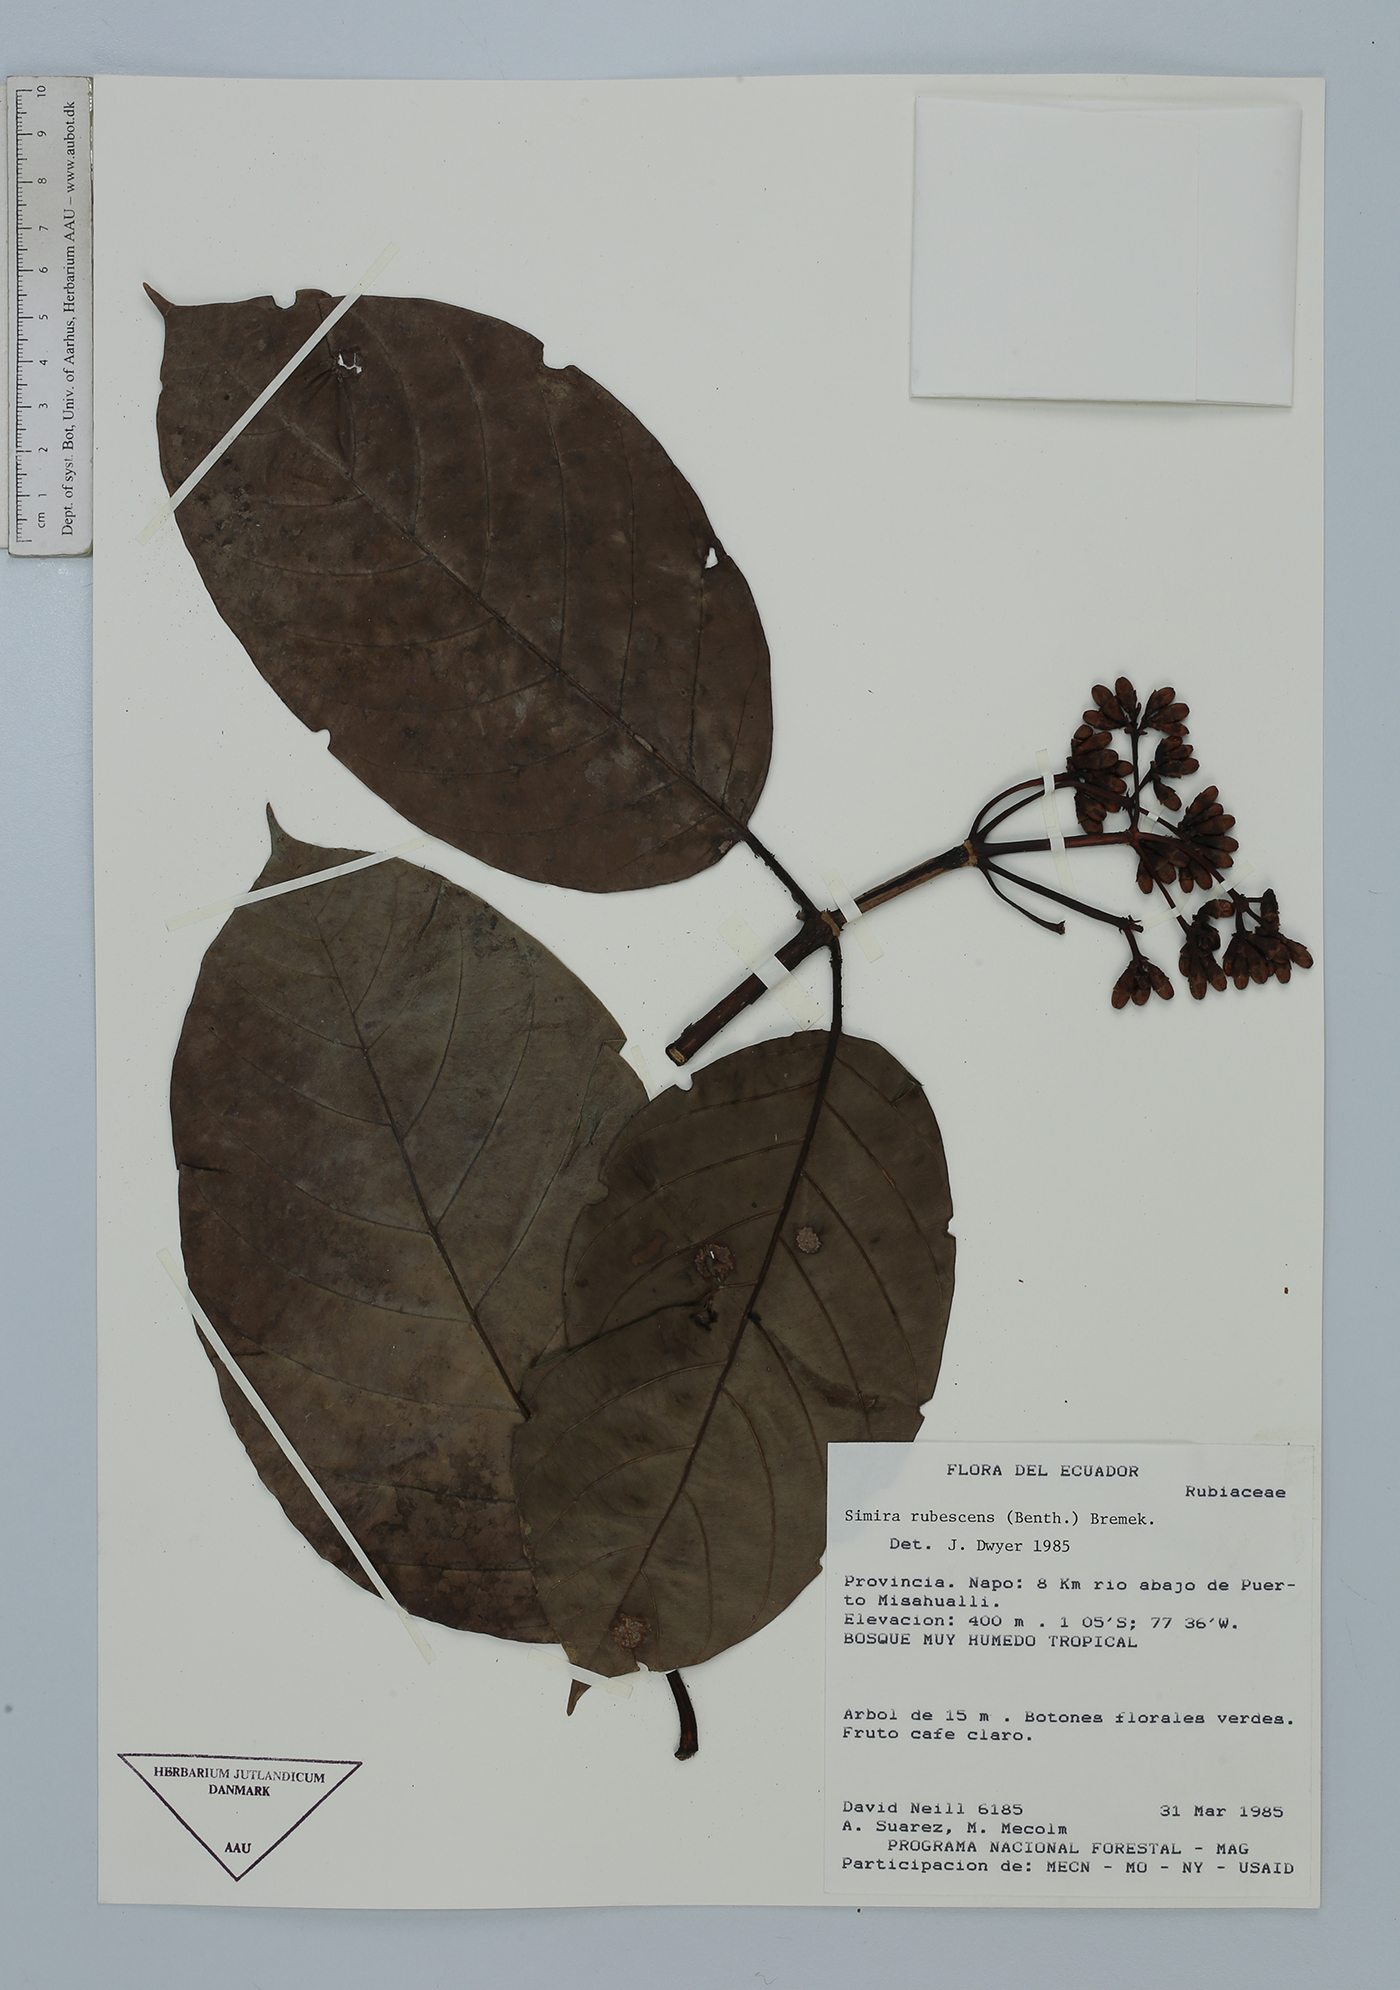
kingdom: Plantae
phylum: Tracheophyta
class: Magnoliopsida
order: Gentianales
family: Rubiaceae
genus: Simira
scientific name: Simira rubescens
